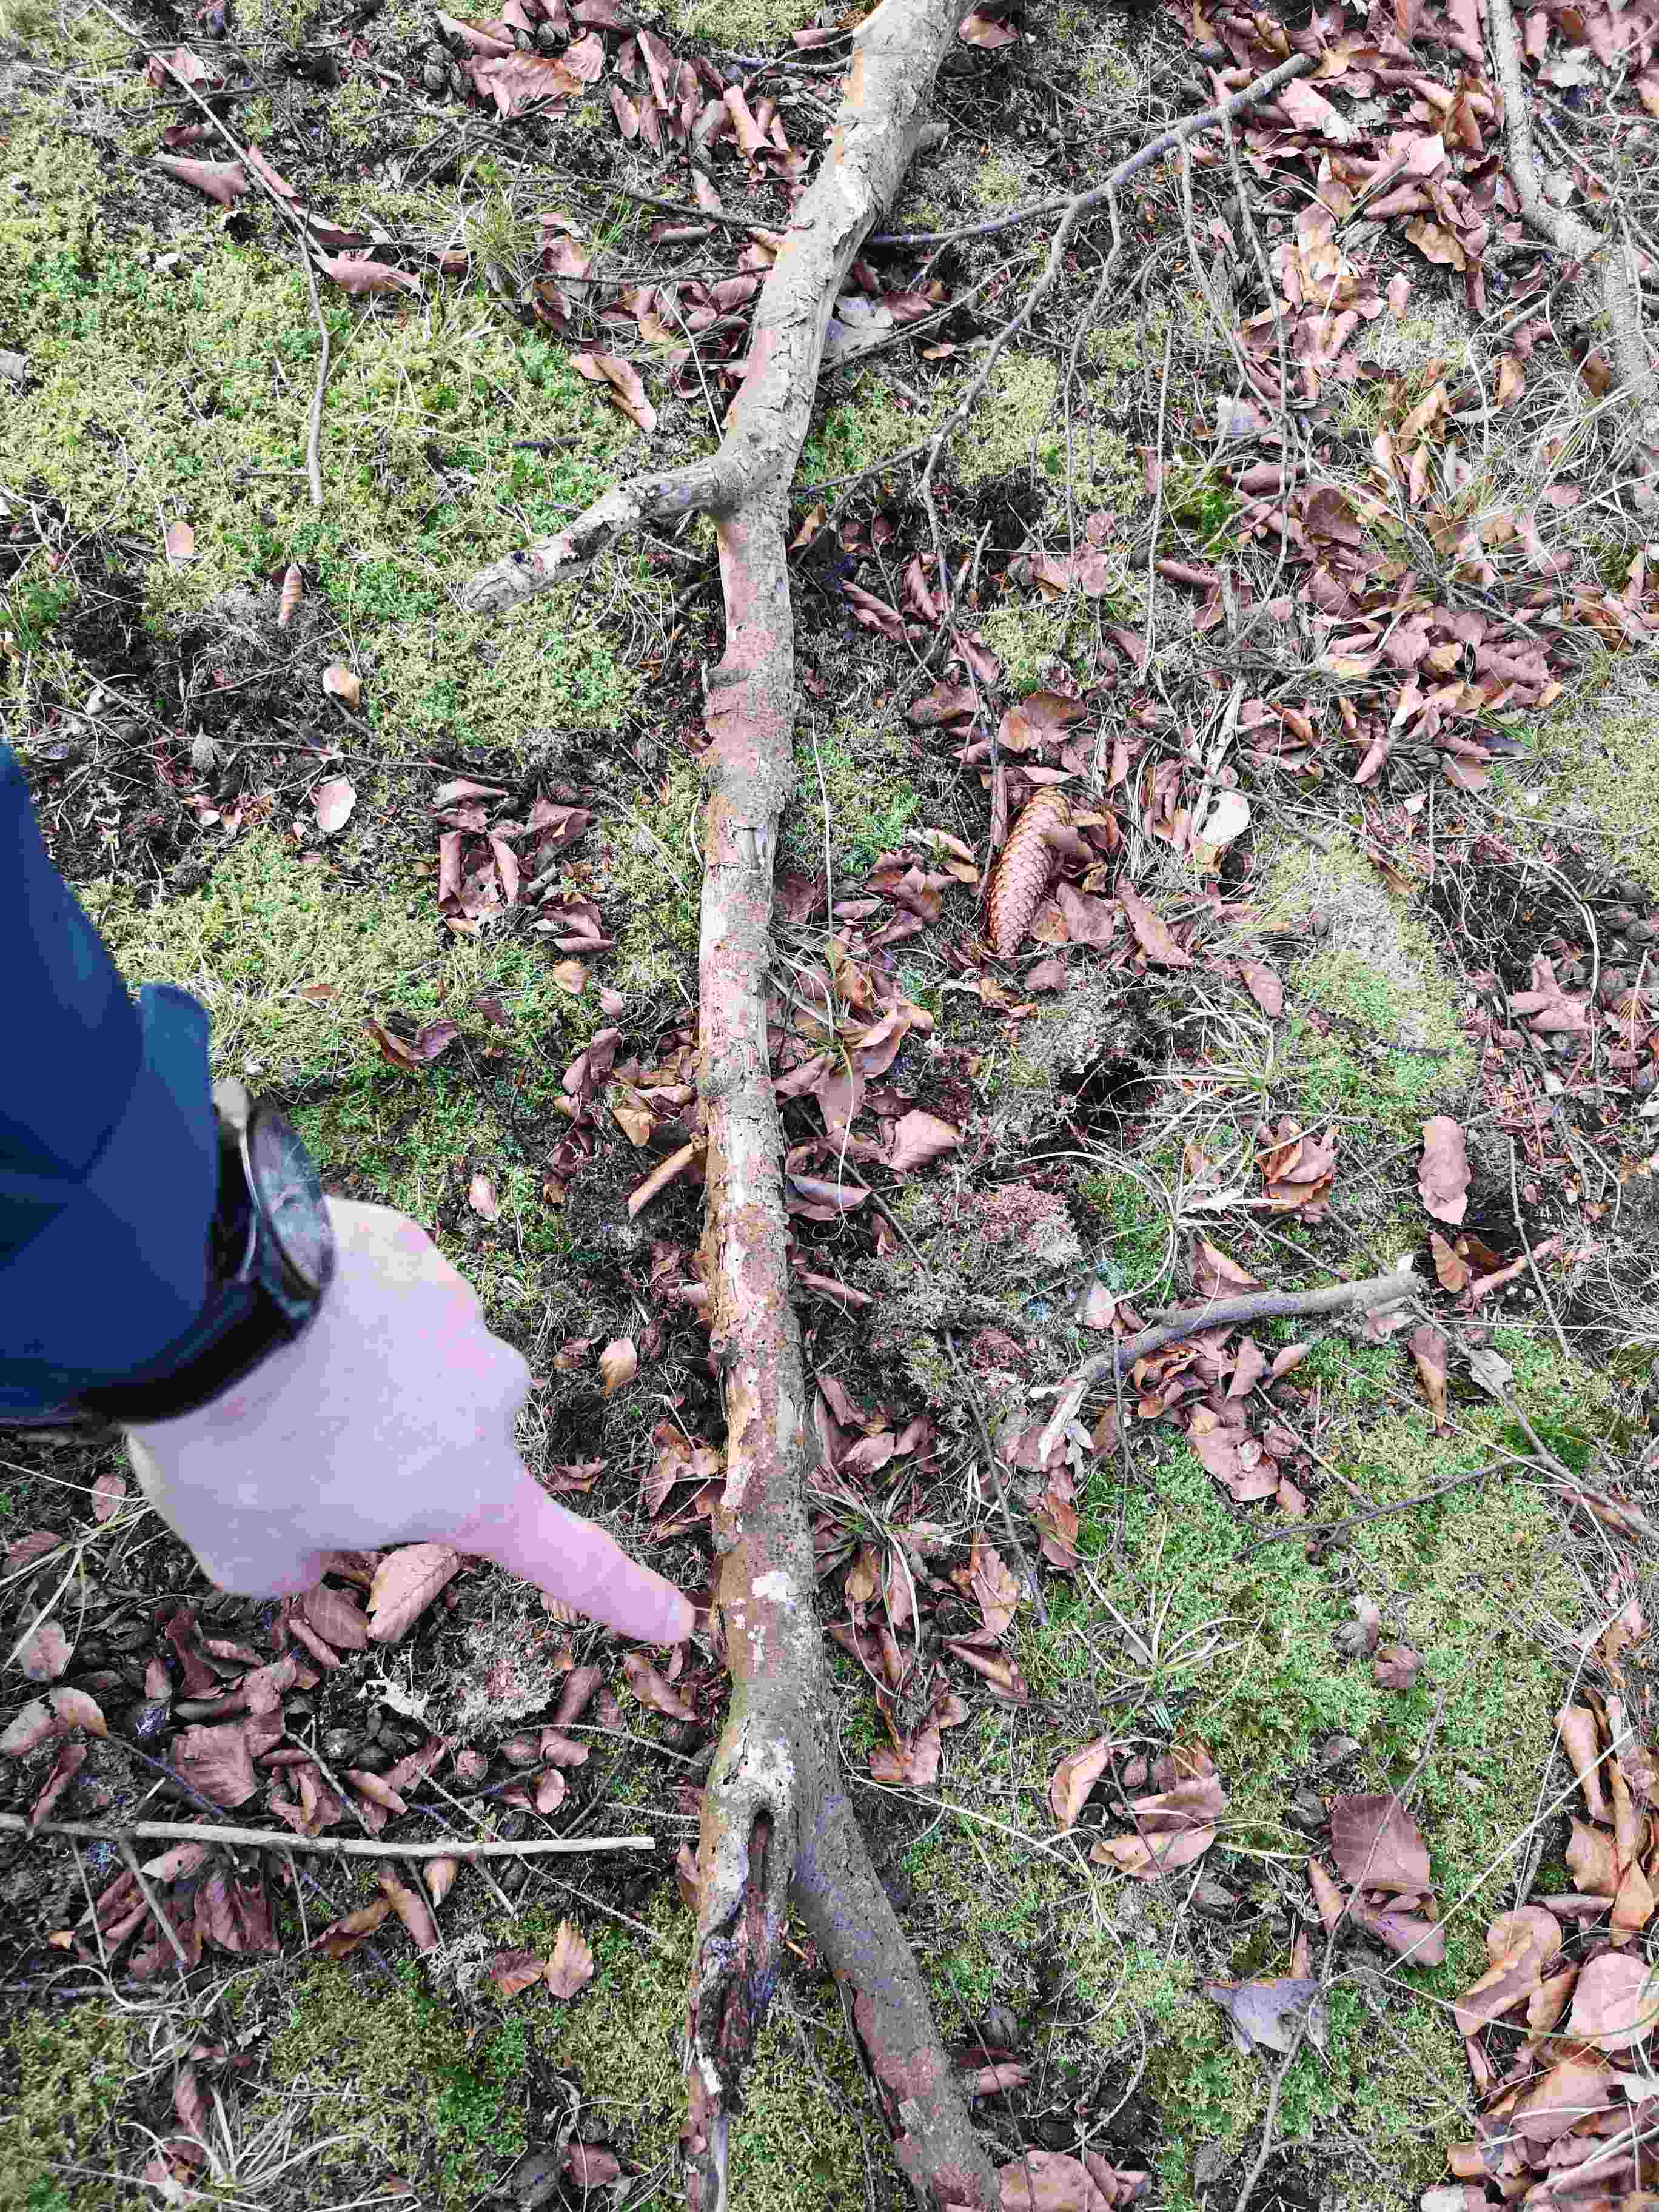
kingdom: Fungi
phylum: Basidiomycota
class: Agaricomycetes
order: Cantharellales
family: Tulasnellaceae
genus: Tulasnella
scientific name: Tulasnella violea
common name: violet ballonhinde
